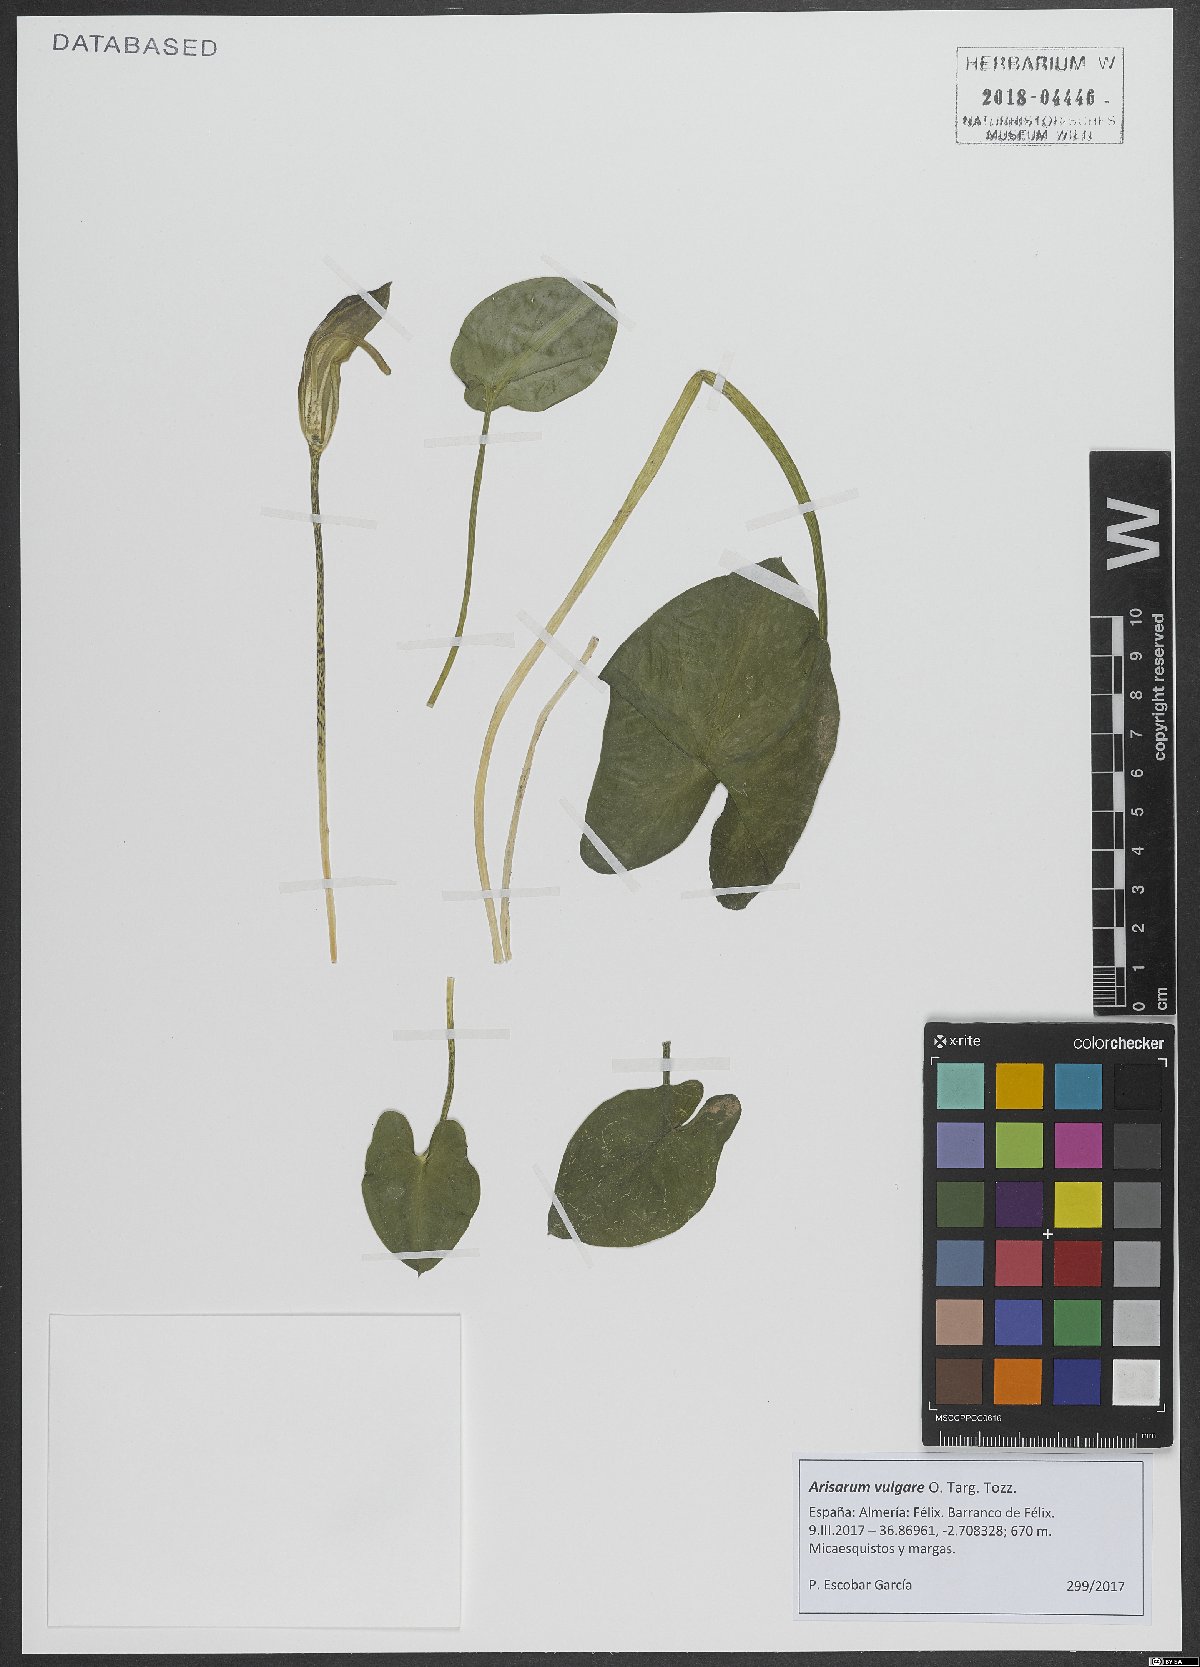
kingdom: Plantae
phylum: Tracheophyta
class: Liliopsida
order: Alismatales
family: Araceae
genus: Arisarum
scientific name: Arisarum vulgare
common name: Common arisarum
